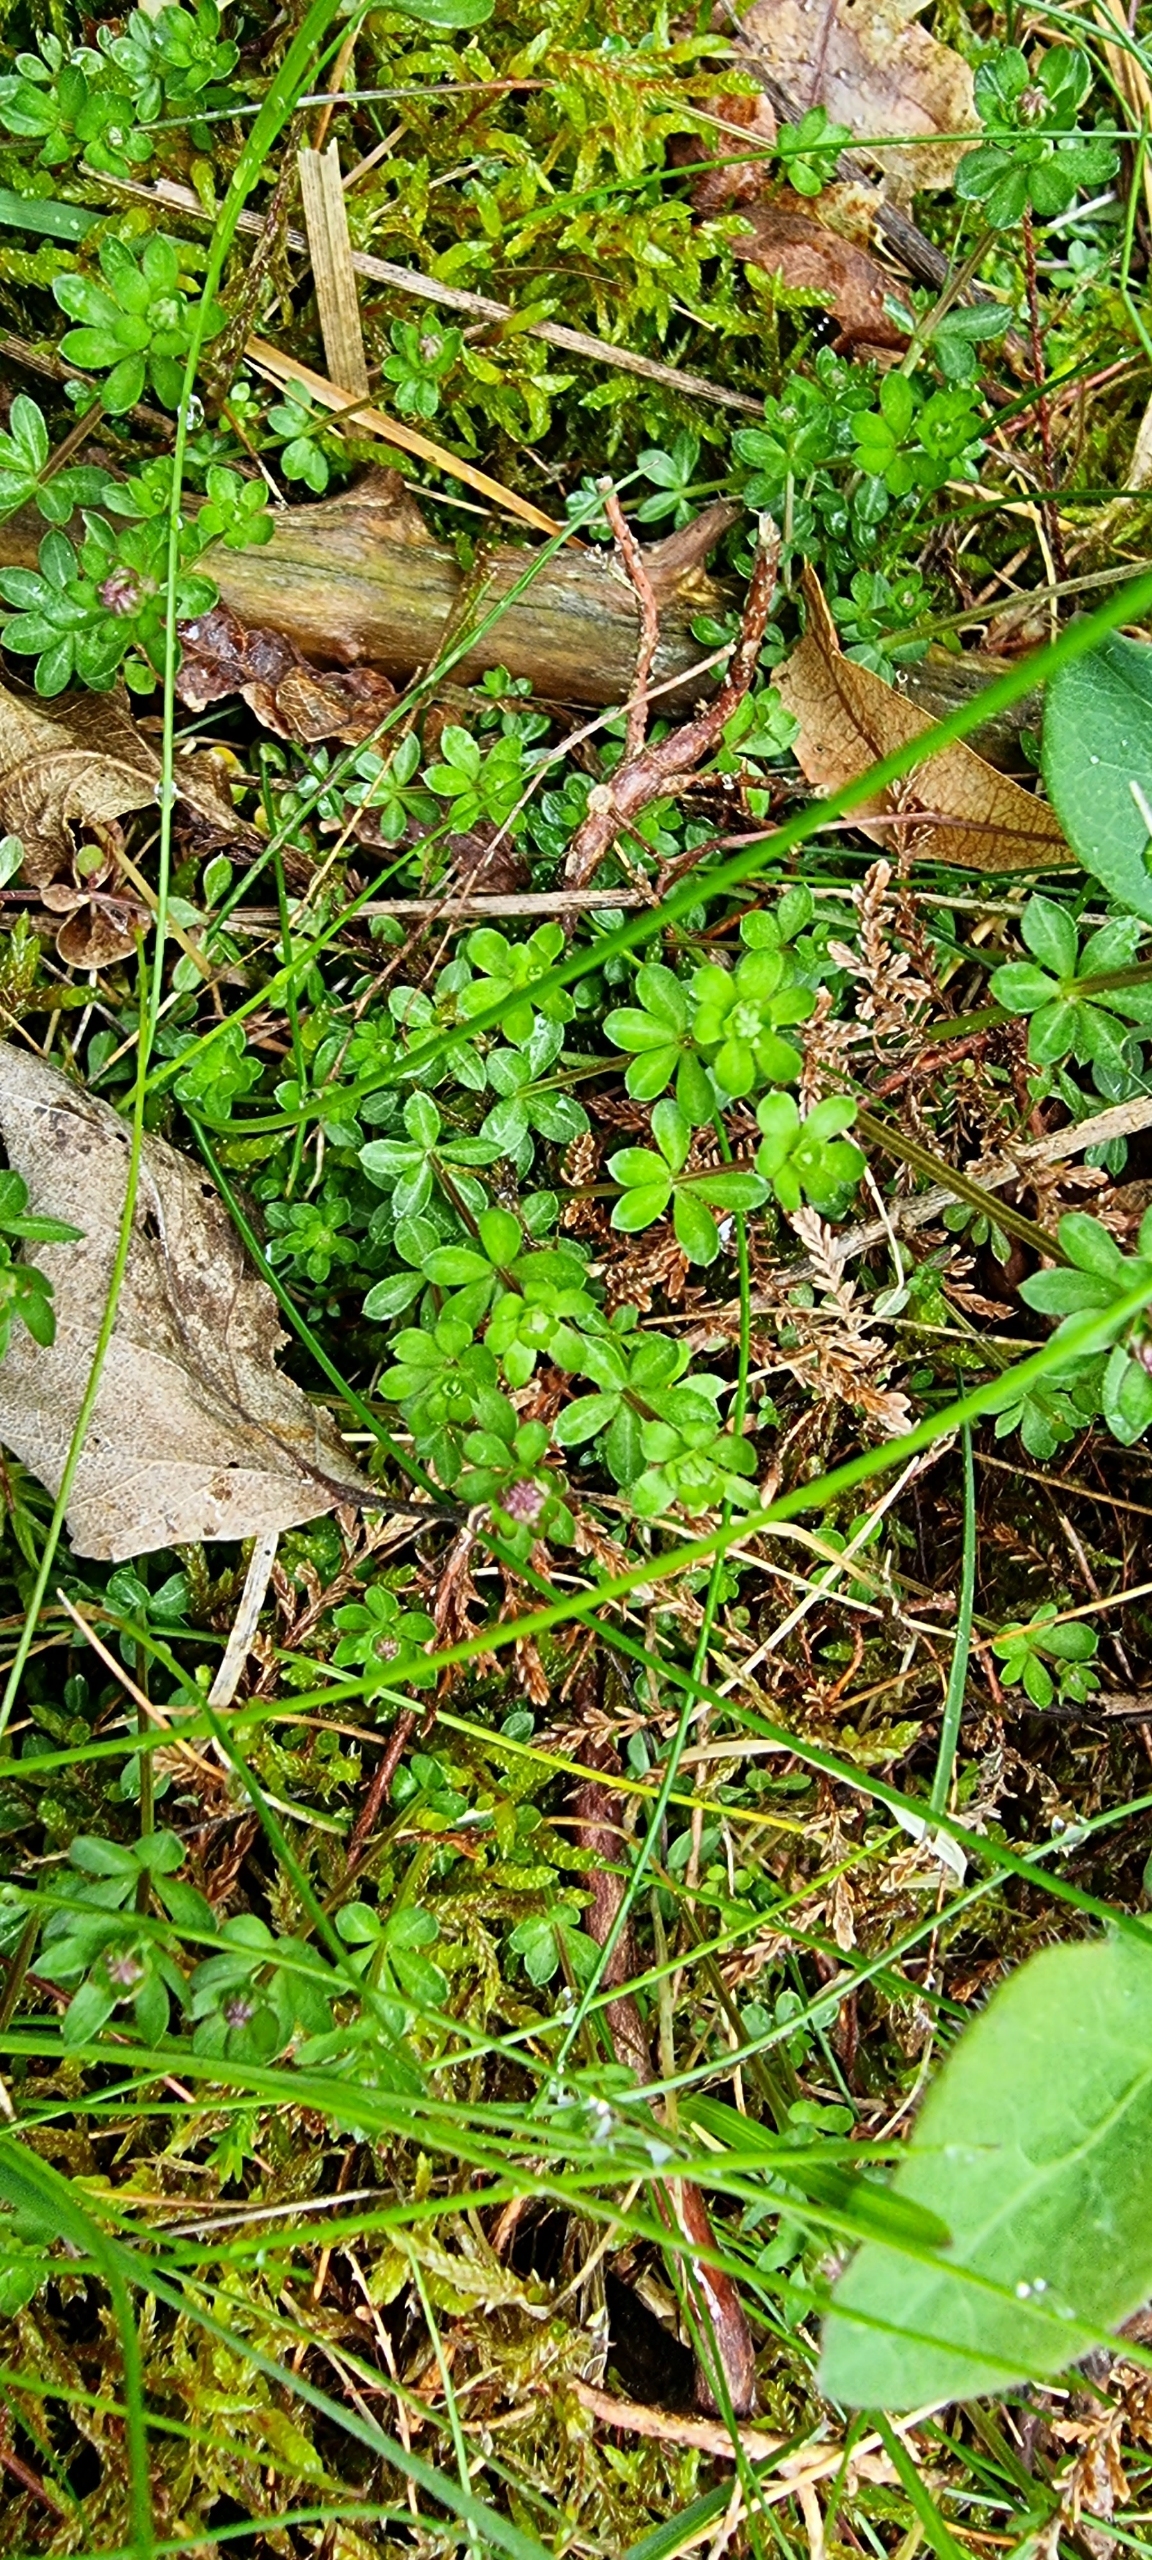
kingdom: Plantae
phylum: Tracheophyta
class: Magnoliopsida
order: Gentianales
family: Rubiaceae
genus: Galium
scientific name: Galium saxatile
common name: Lyng-snerre
